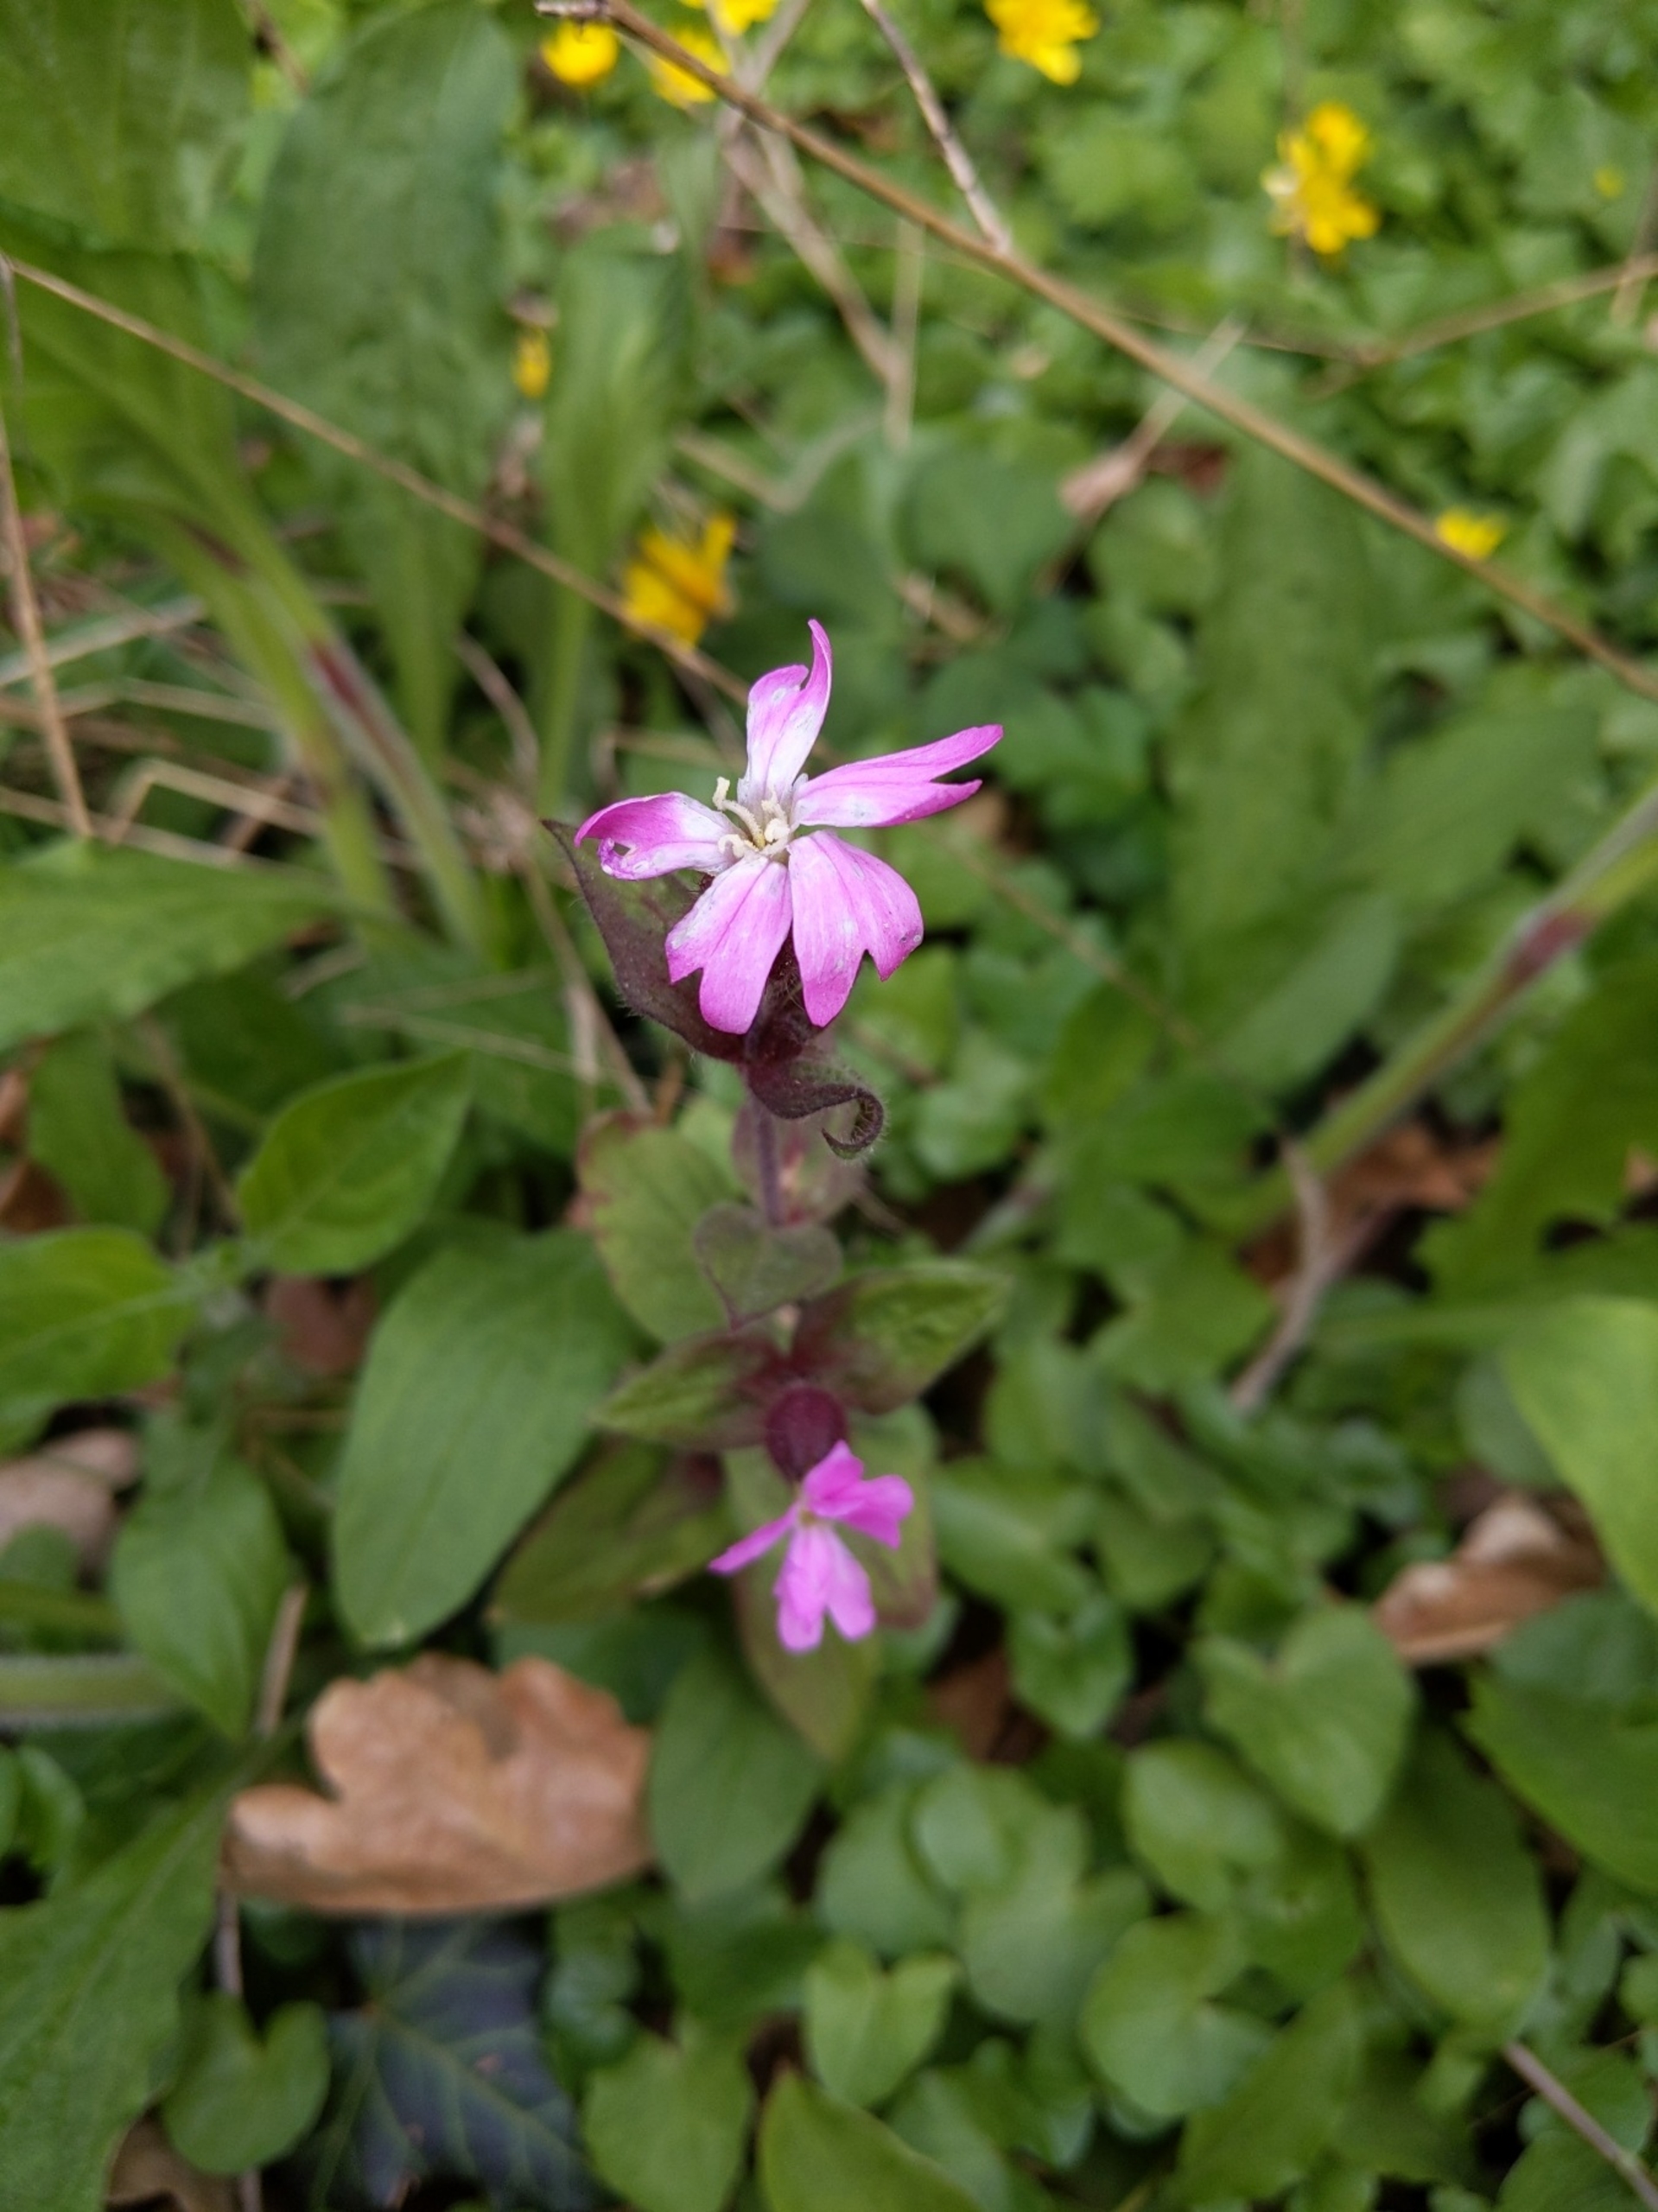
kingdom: Plantae
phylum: Tracheophyta
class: Magnoliopsida
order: Caryophyllales
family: Caryophyllaceae
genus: Silene
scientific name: Silene dioica
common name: Dagpragtstjerne
